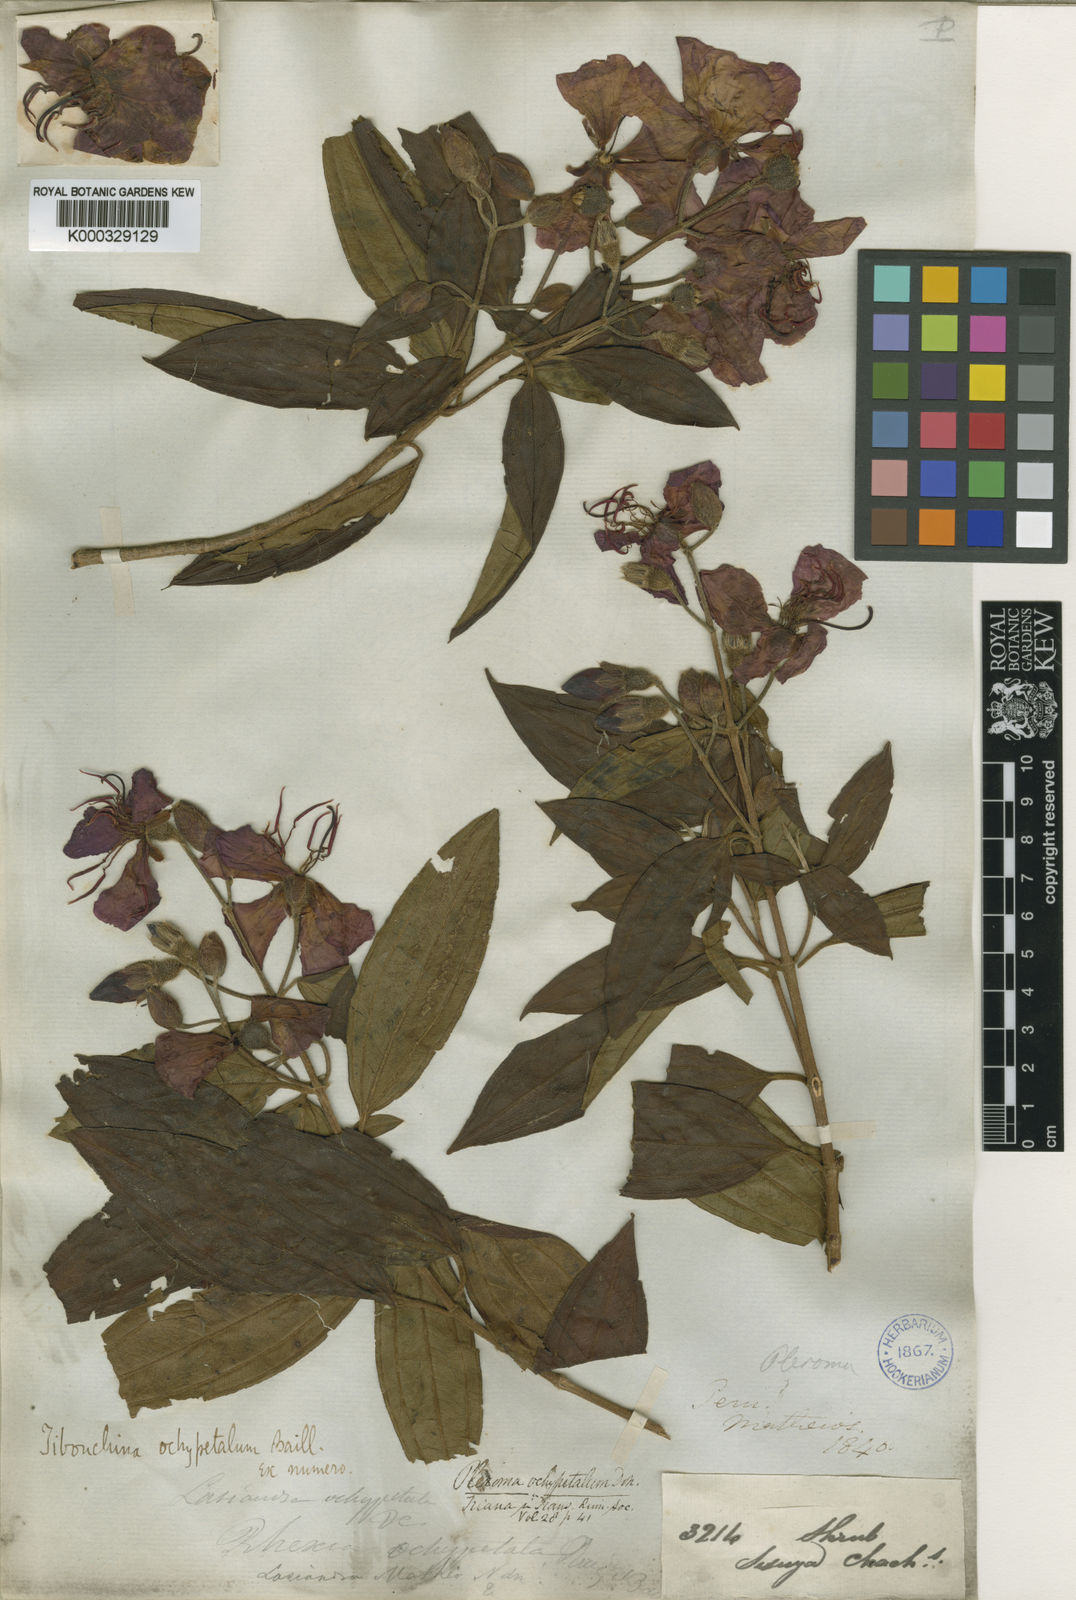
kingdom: Plantae
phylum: Tracheophyta
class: Magnoliopsida
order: Myrtales
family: Melastomataceae
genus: Pleroma
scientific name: Pleroma ochypetalum
